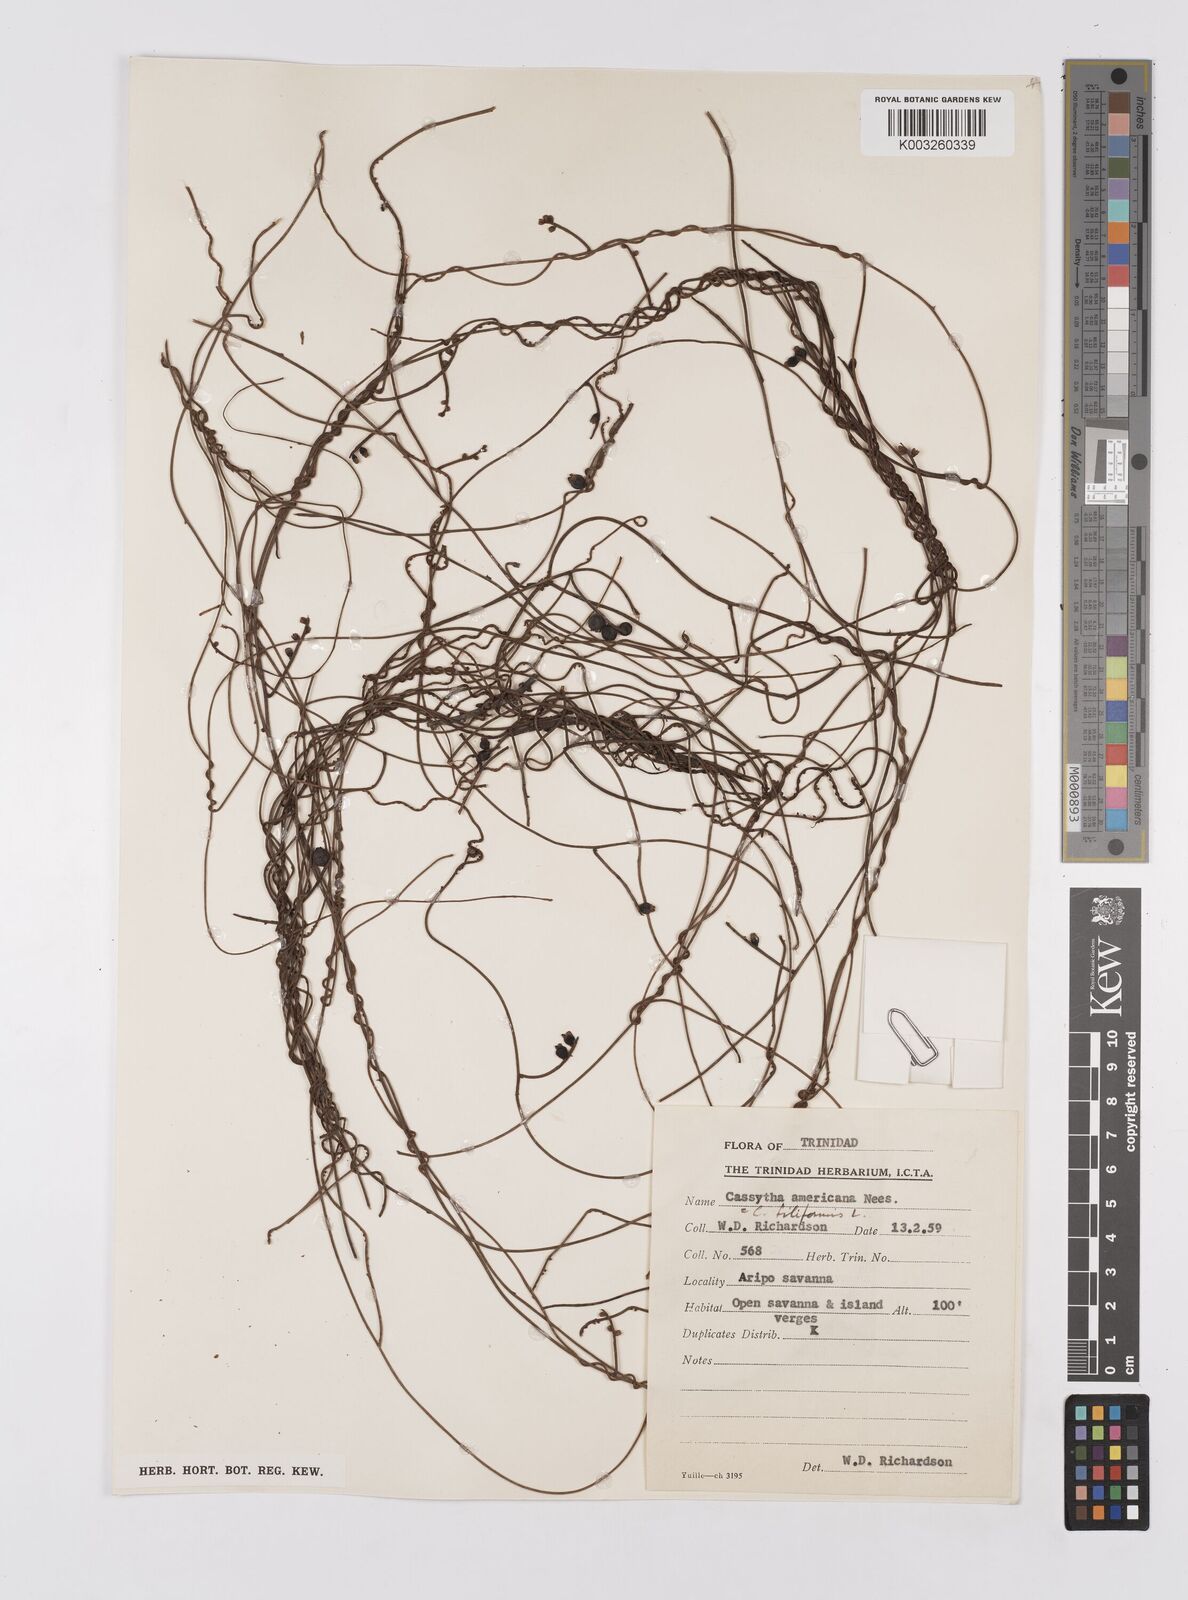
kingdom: Plantae
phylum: Tracheophyta
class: Magnoliopsida
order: Laurales
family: Lauraceae
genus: Cassytha
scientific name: Cassytha filiformis
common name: Dodder-laurel
